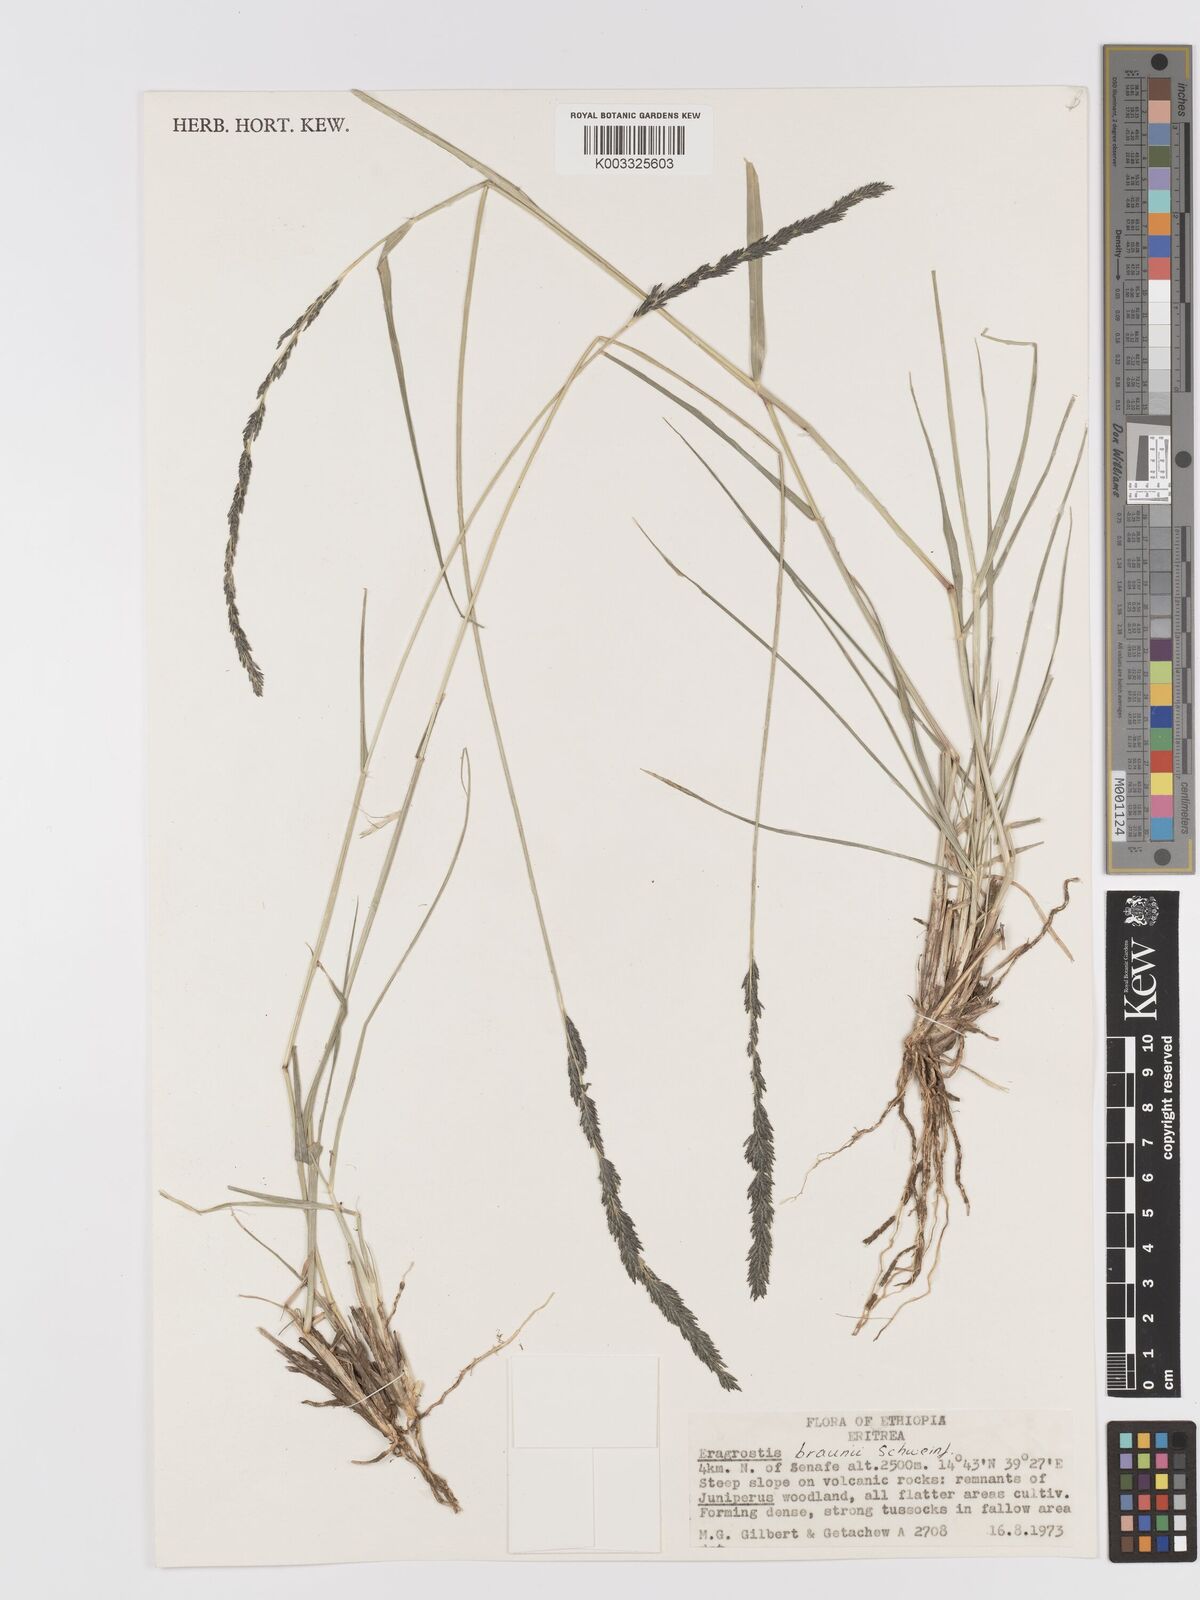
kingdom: Plantae
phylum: Tracheophyta
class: Liliopsida
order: Poales
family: Poaceae
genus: Eragrostis
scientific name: Eragrostis braunii
